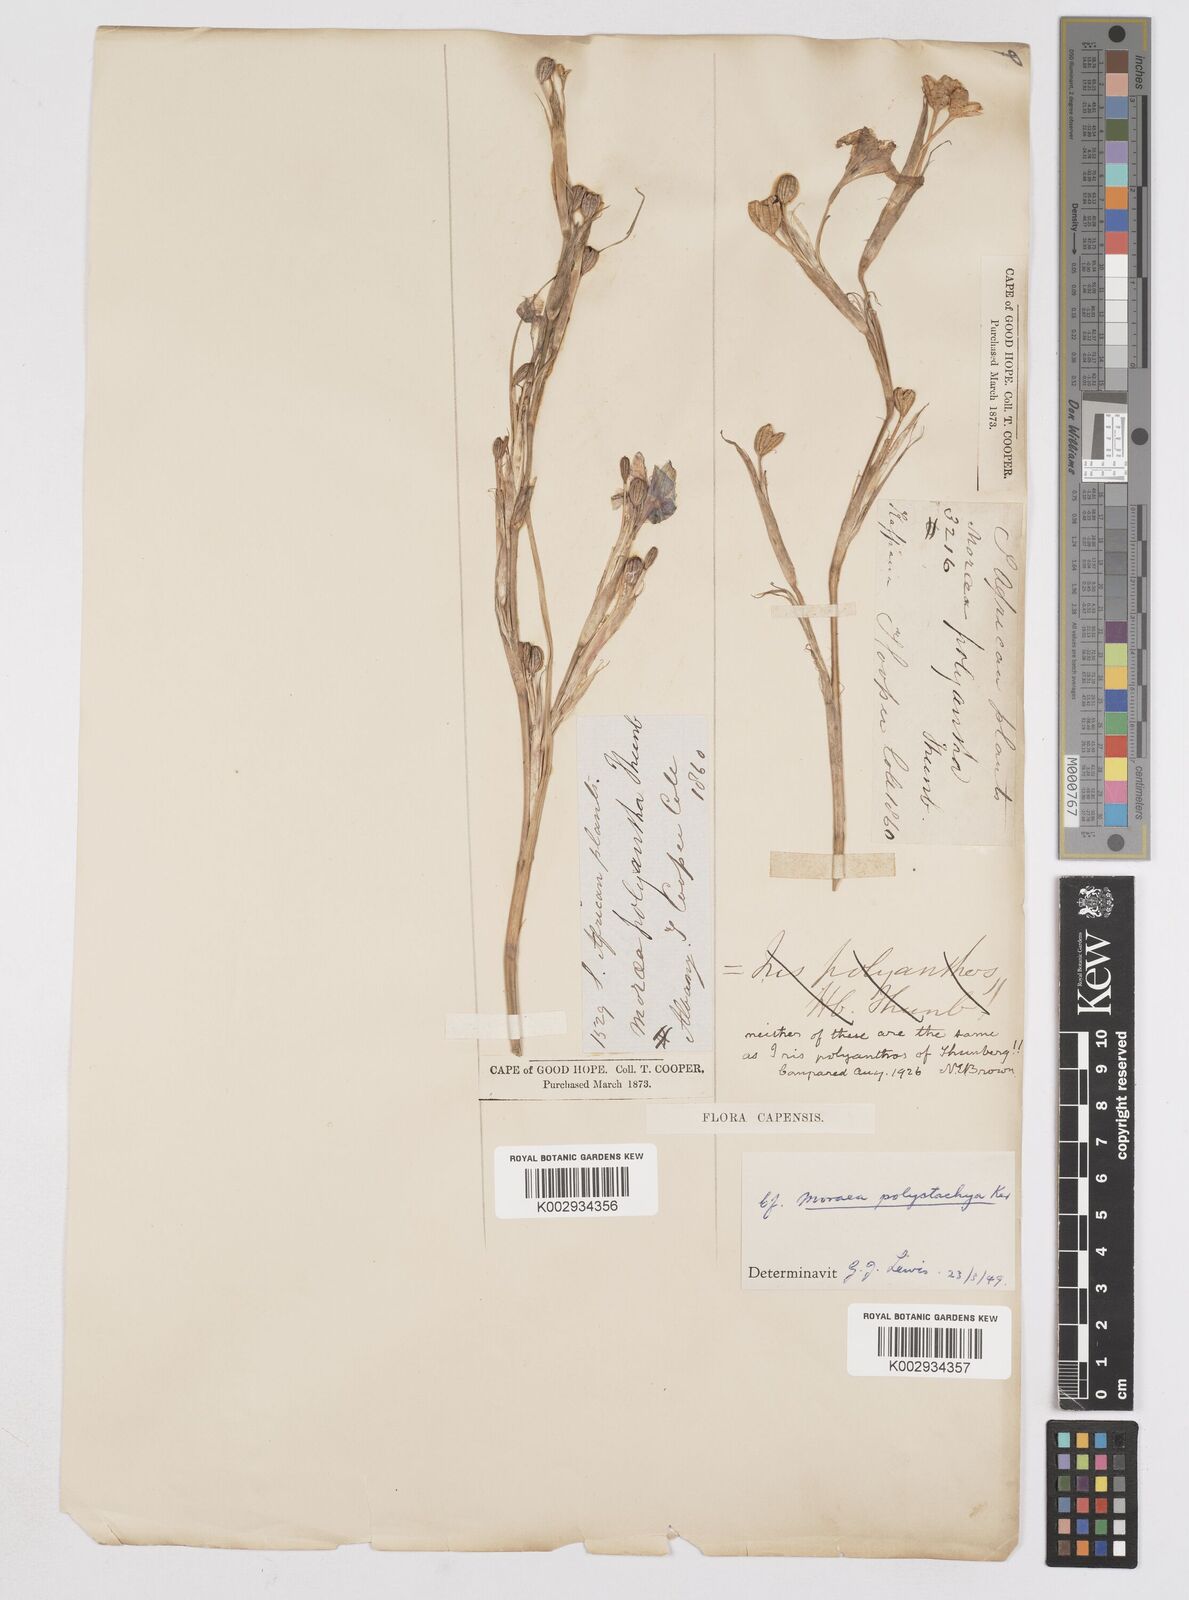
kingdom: Plantae
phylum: Tracheophyta
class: Liliopsida
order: Asparagales
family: Iridaceae
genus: Moraea
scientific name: Moraea polystachya
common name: Blue-tulip
